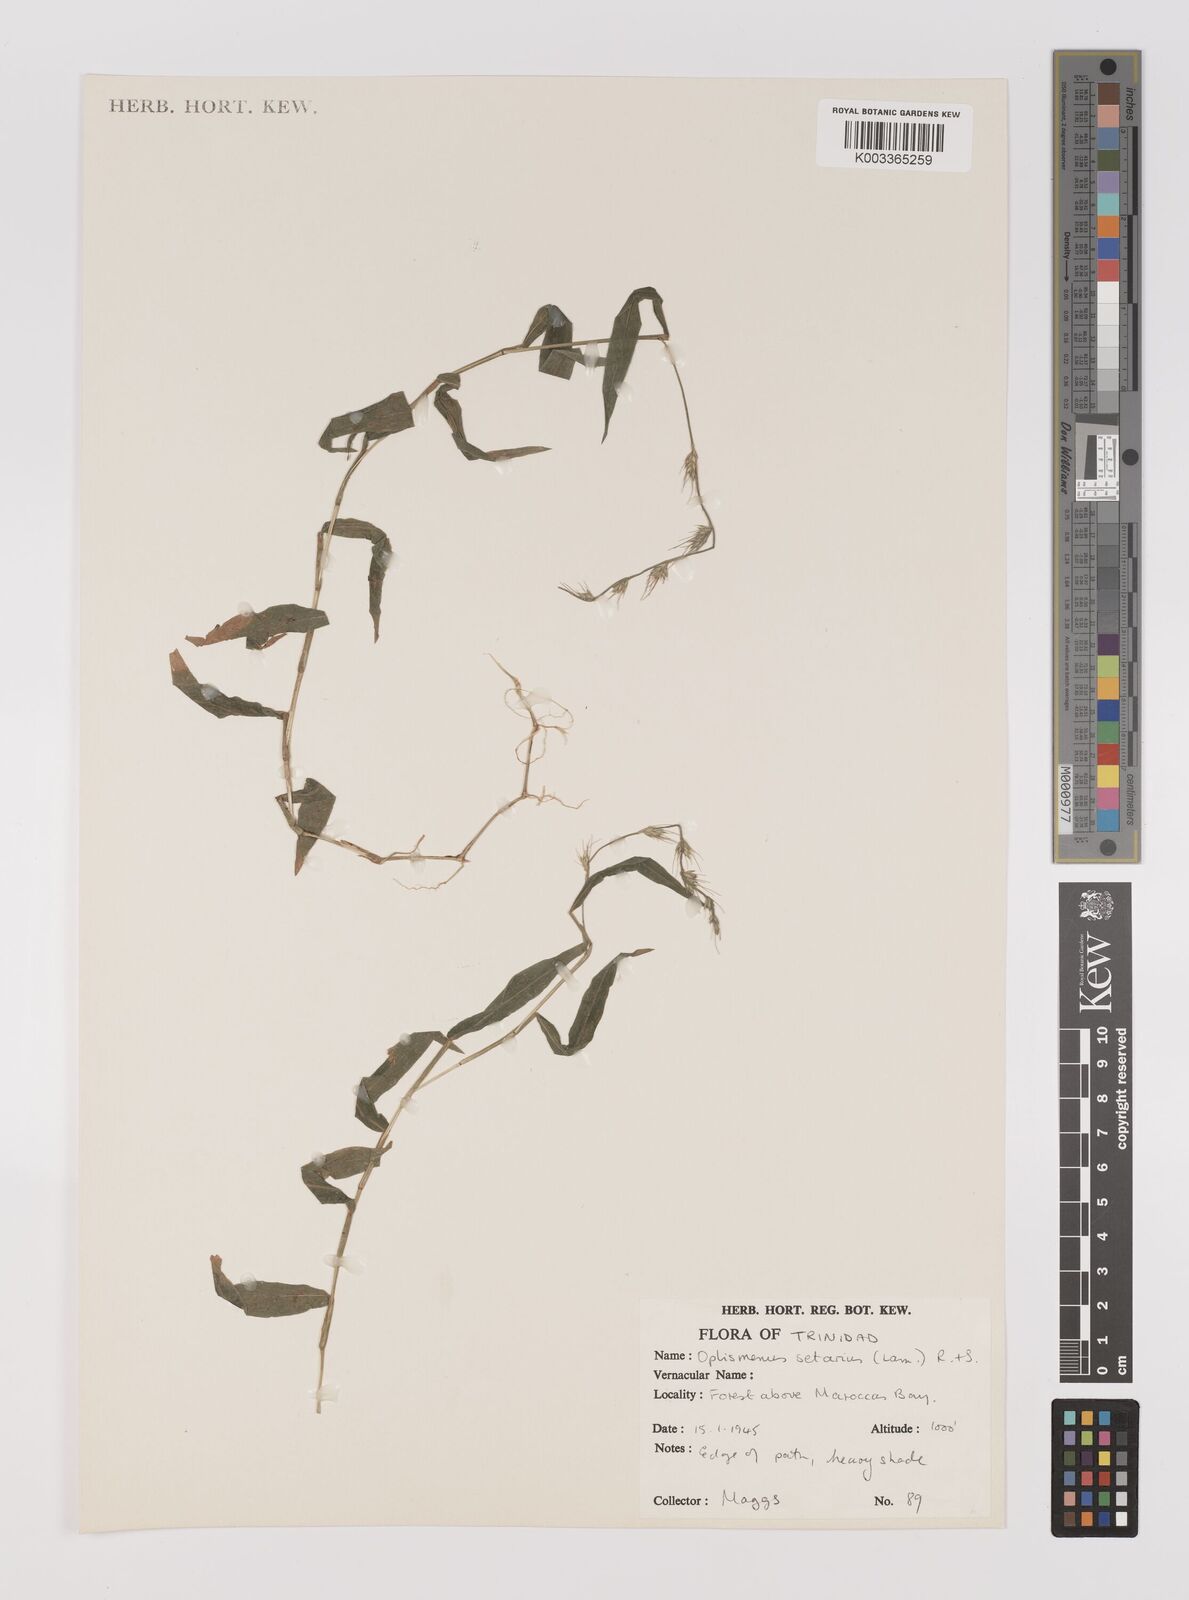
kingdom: Plantae
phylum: Tracheophyta
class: Liliopsida
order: Poales
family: Poaceae
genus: Oplismenus
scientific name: Oplismenus hirtellus
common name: Basketgrass
